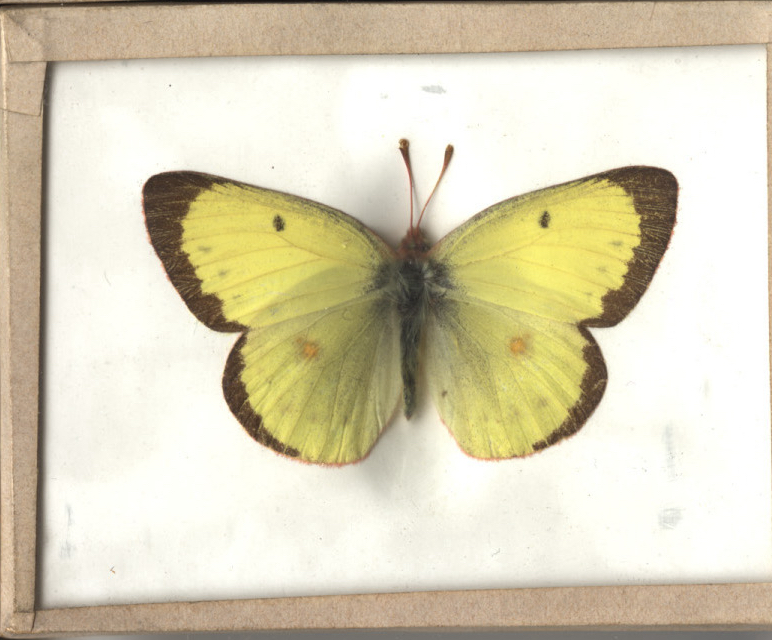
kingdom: Animalia
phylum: Arthropoda
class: Insecta
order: Lepidoptera
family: Pieridae
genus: Colias
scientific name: Colias philodice
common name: Clouded Sulphur
